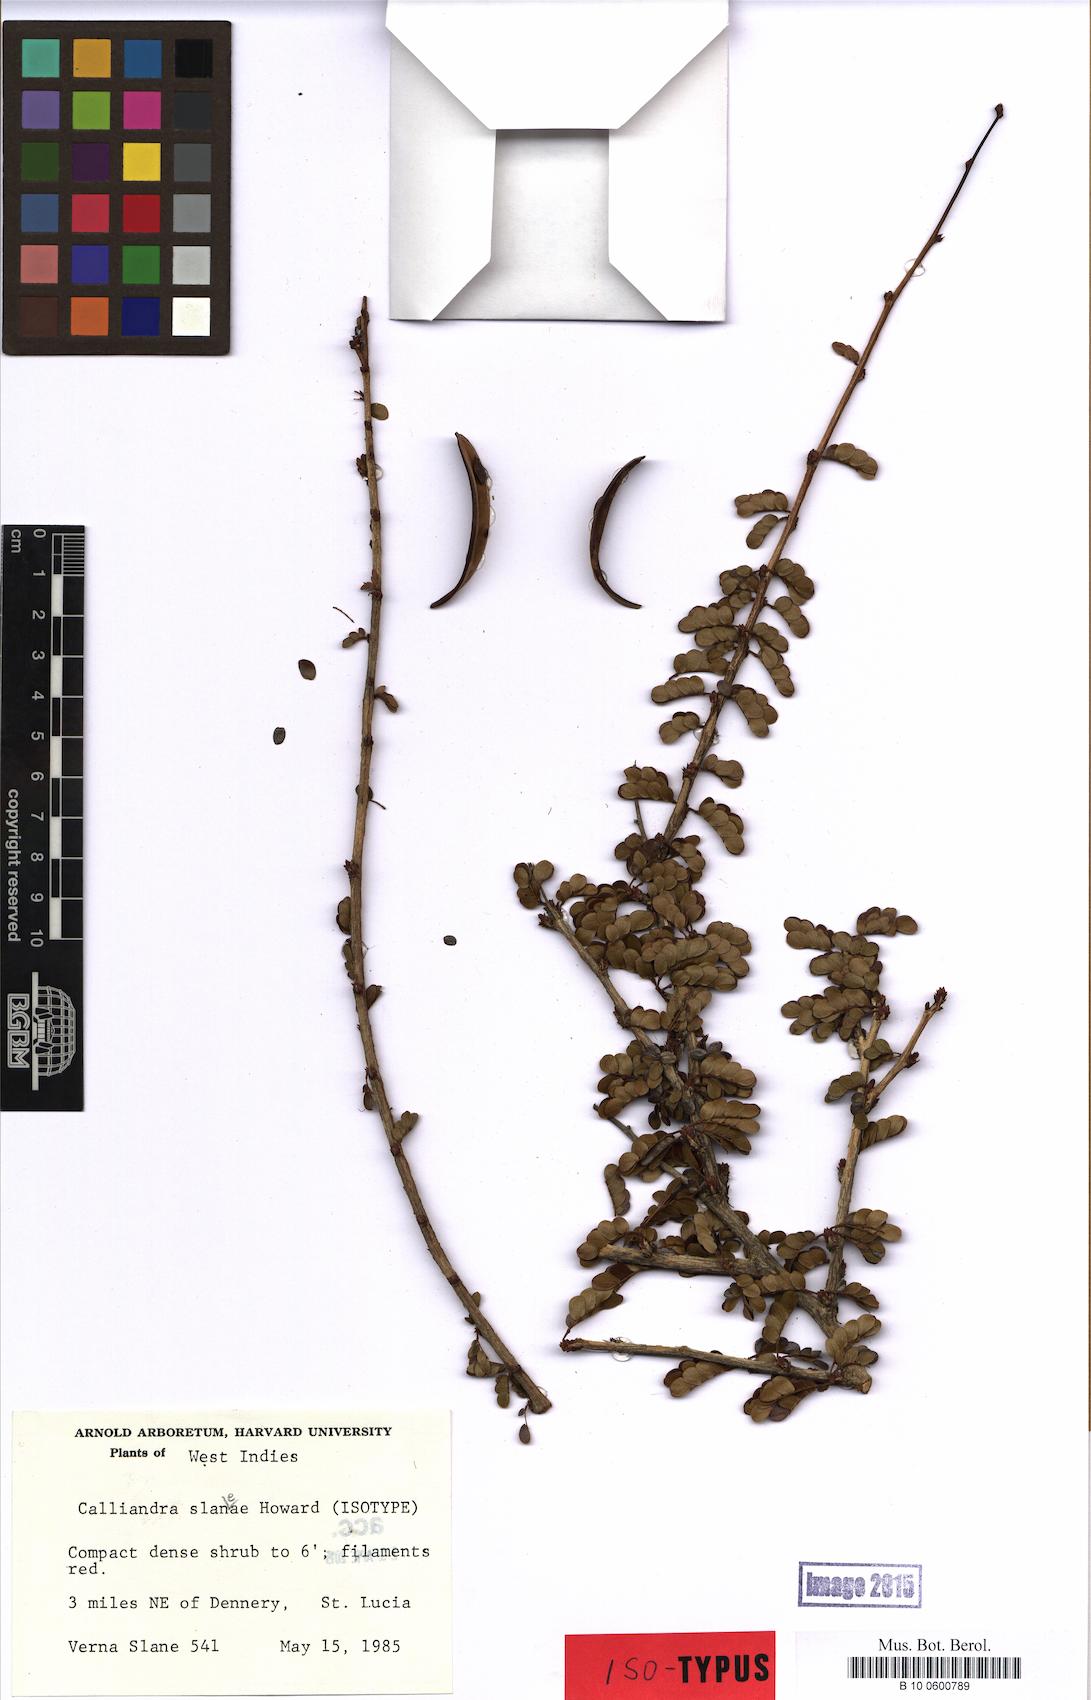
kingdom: Plantae
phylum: Tracheophyta
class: Magnoliopsida
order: Fabales
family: Fabaceae
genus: Calliandra
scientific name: Calliandra purpurea
